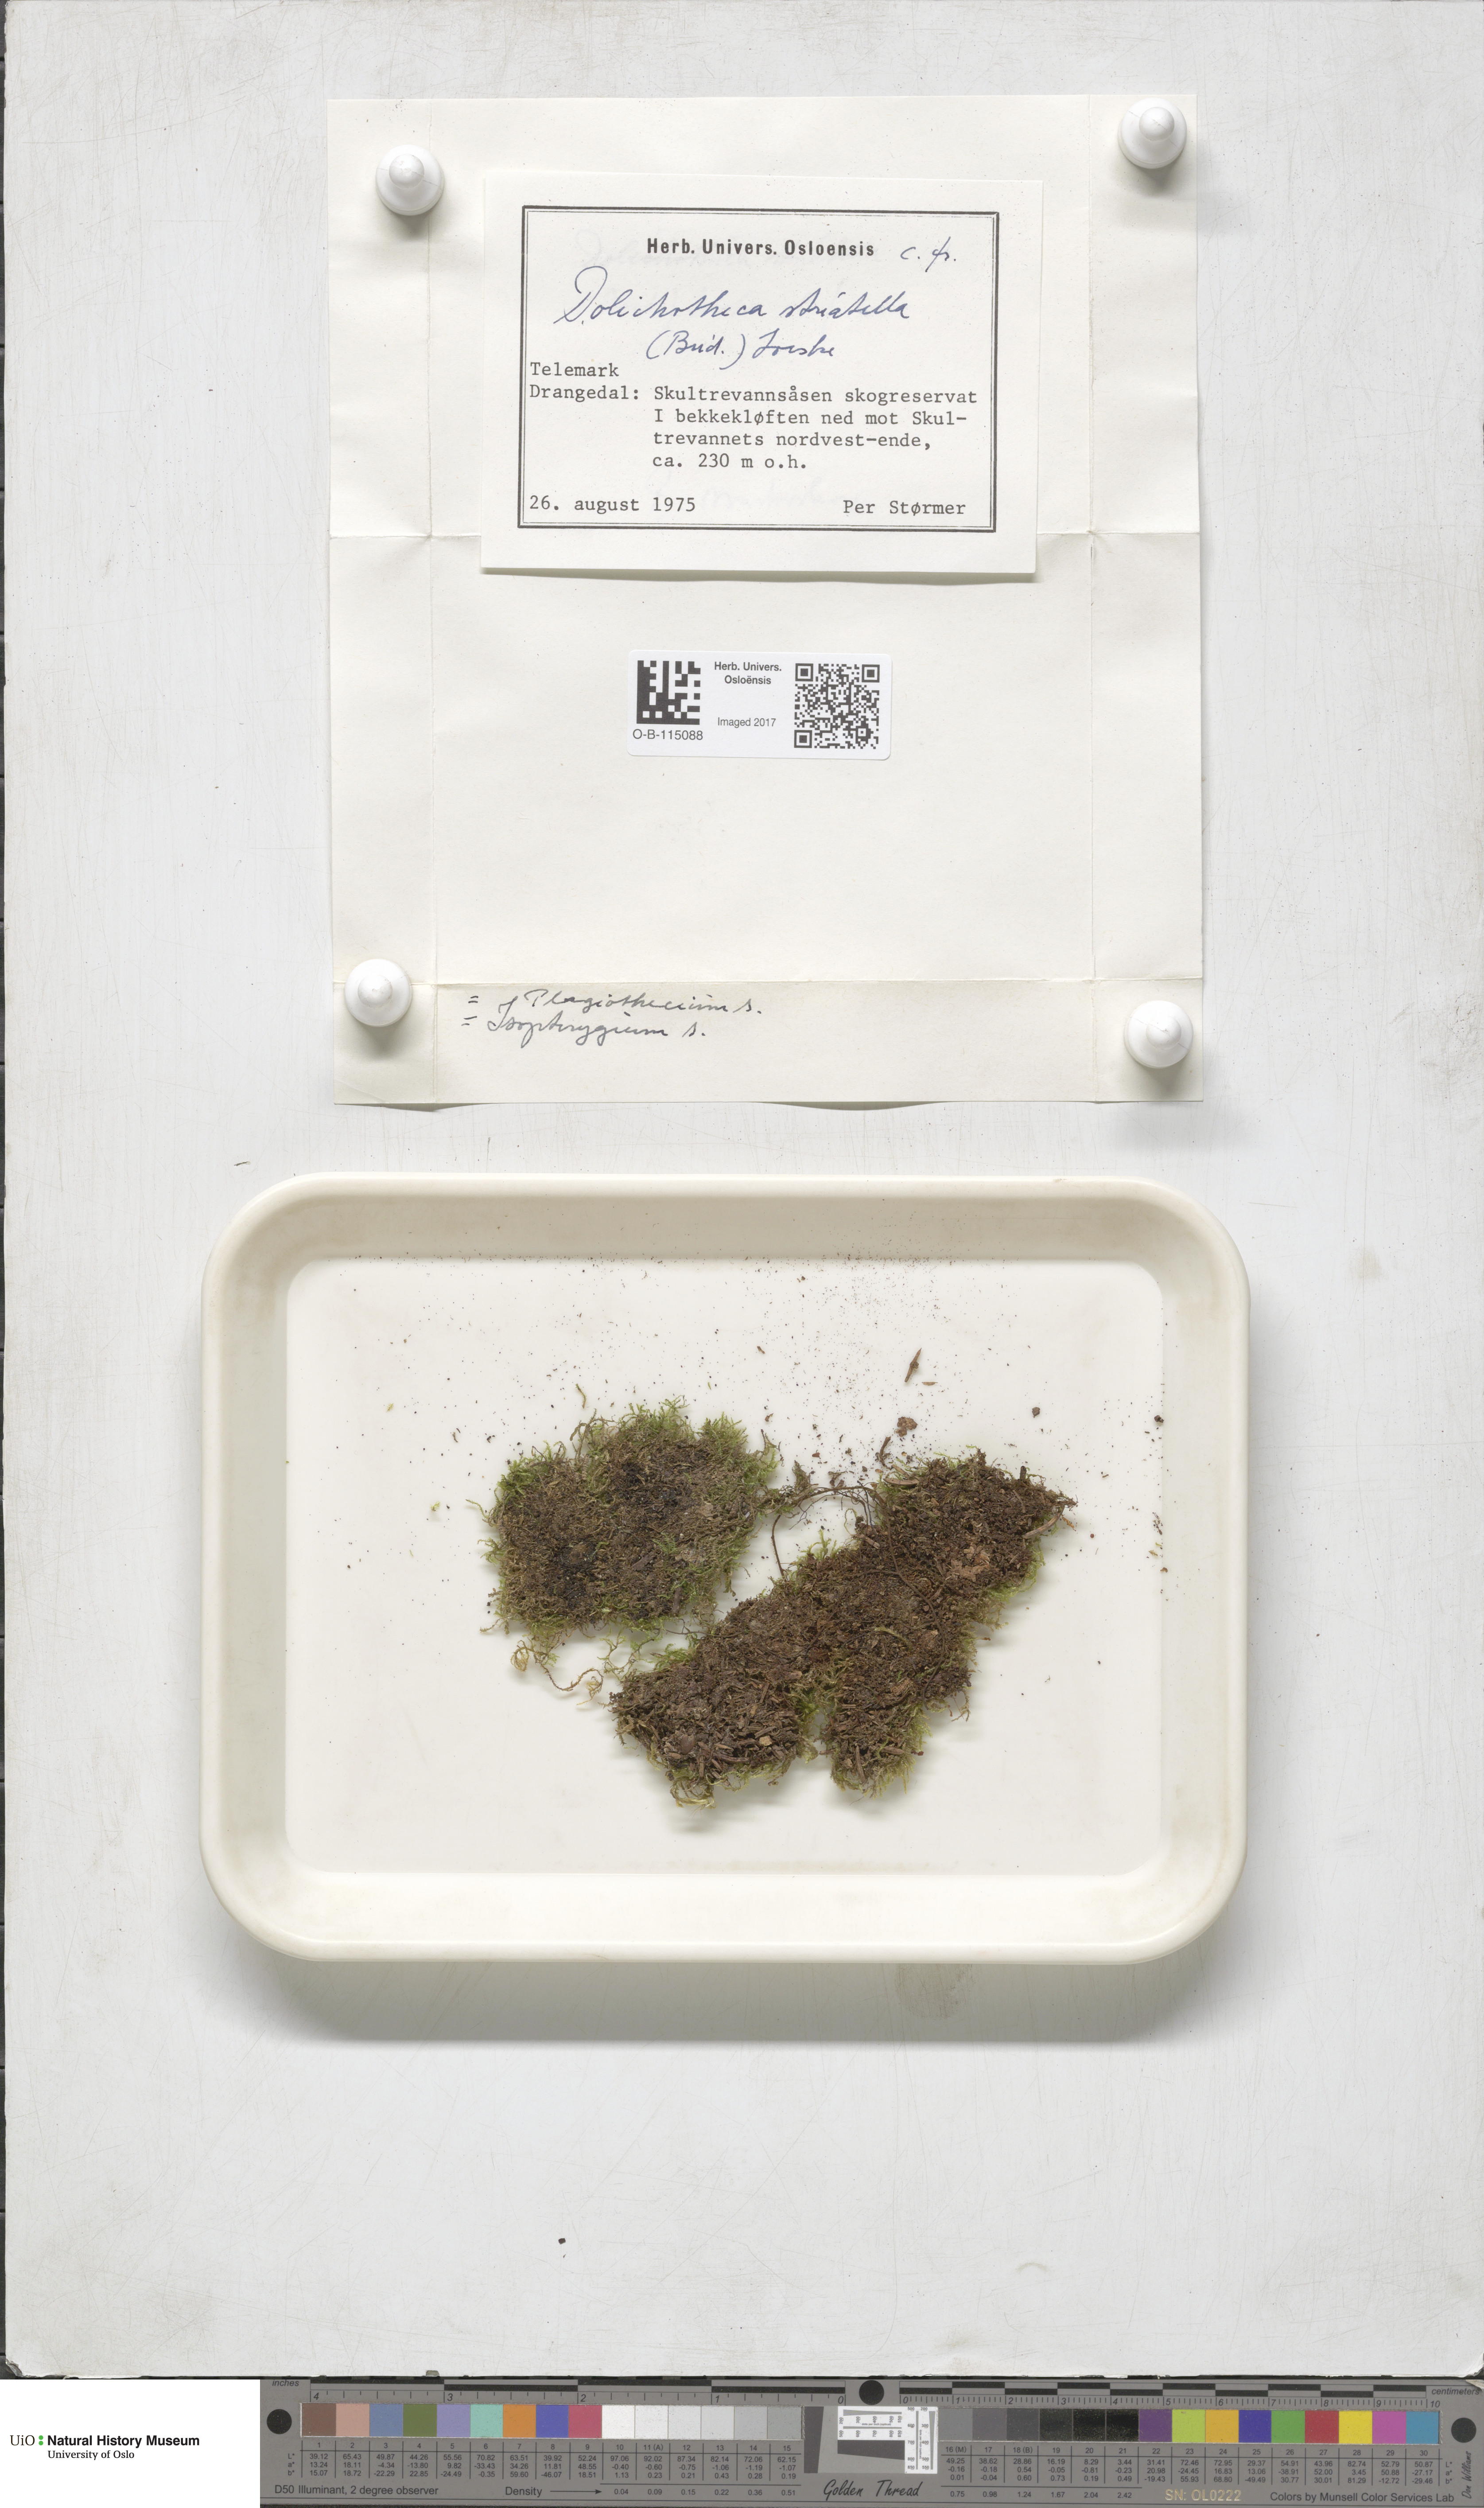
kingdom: Plantae
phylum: Bryophyta
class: Bryopsida
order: Hypnales
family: Plagiotheciaceae
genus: Herzogiella
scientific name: Herzogiella striatella
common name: Muhlenbeck's feather-moss
